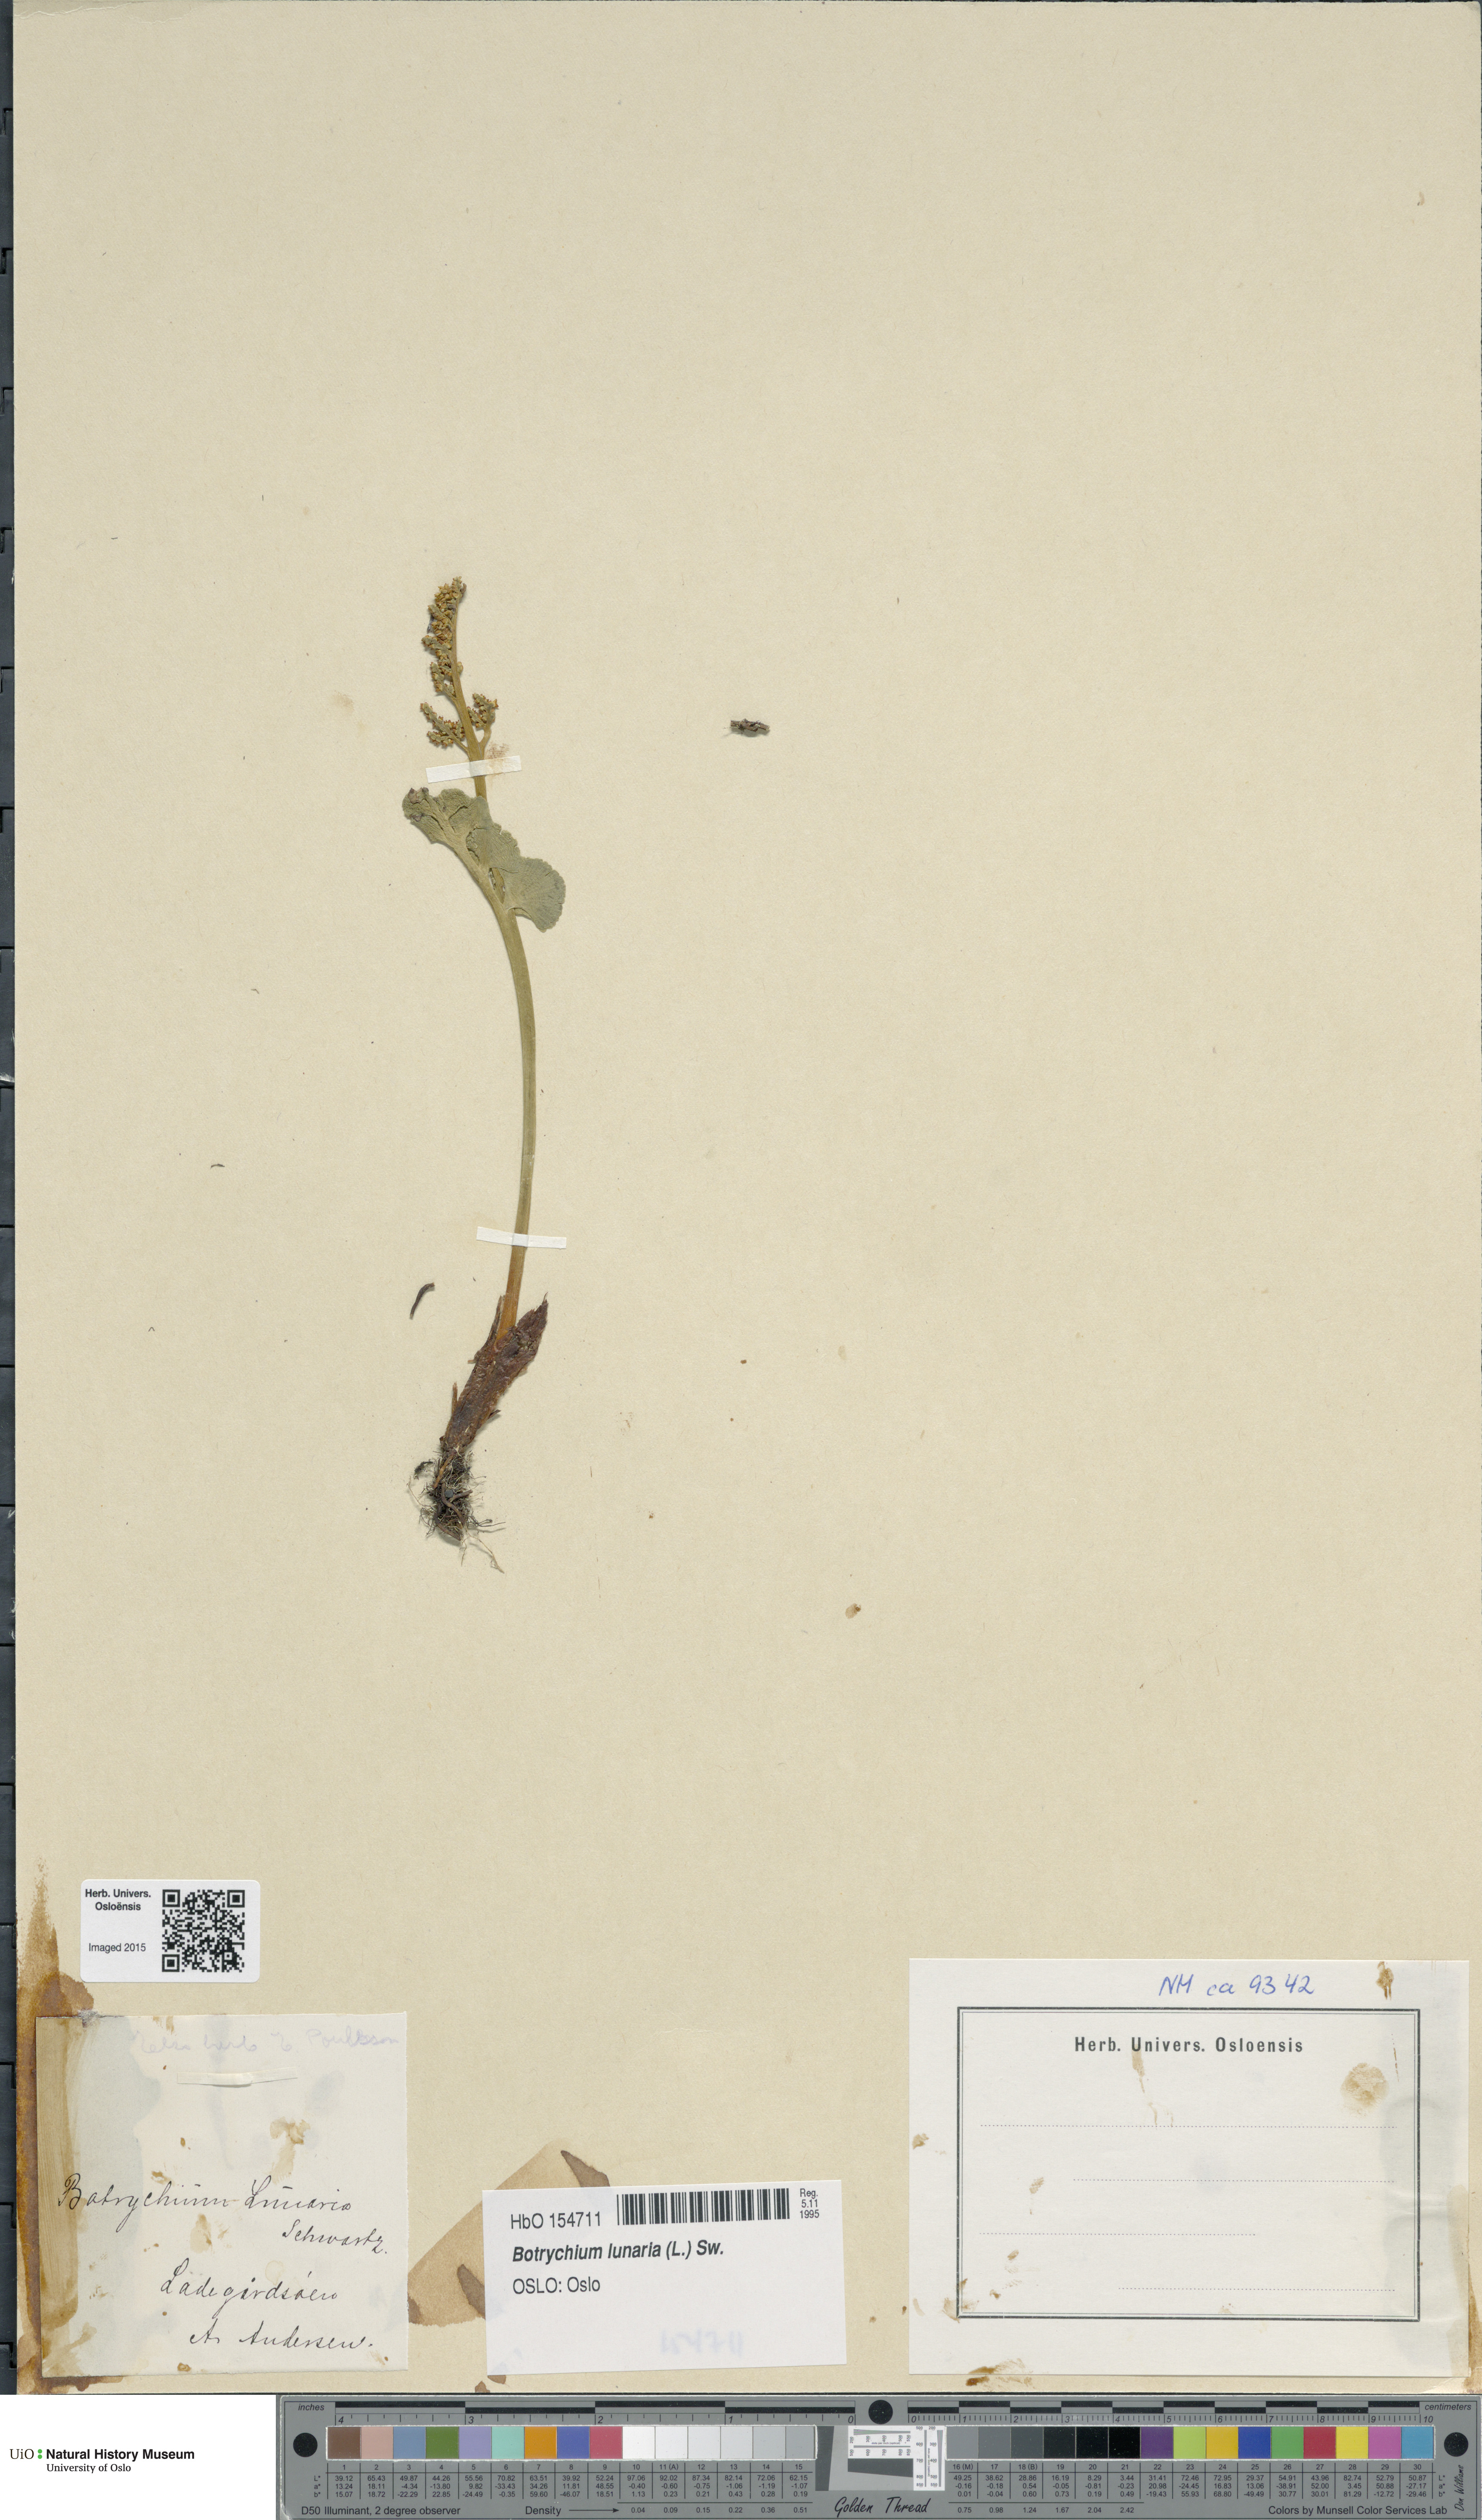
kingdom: Plantae
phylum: Tracheophyta
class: Polypodiopsida
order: Ophioglossales
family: Ophioglossaceae
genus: Botrychium
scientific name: Botrychium lunaria
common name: Moonwort
